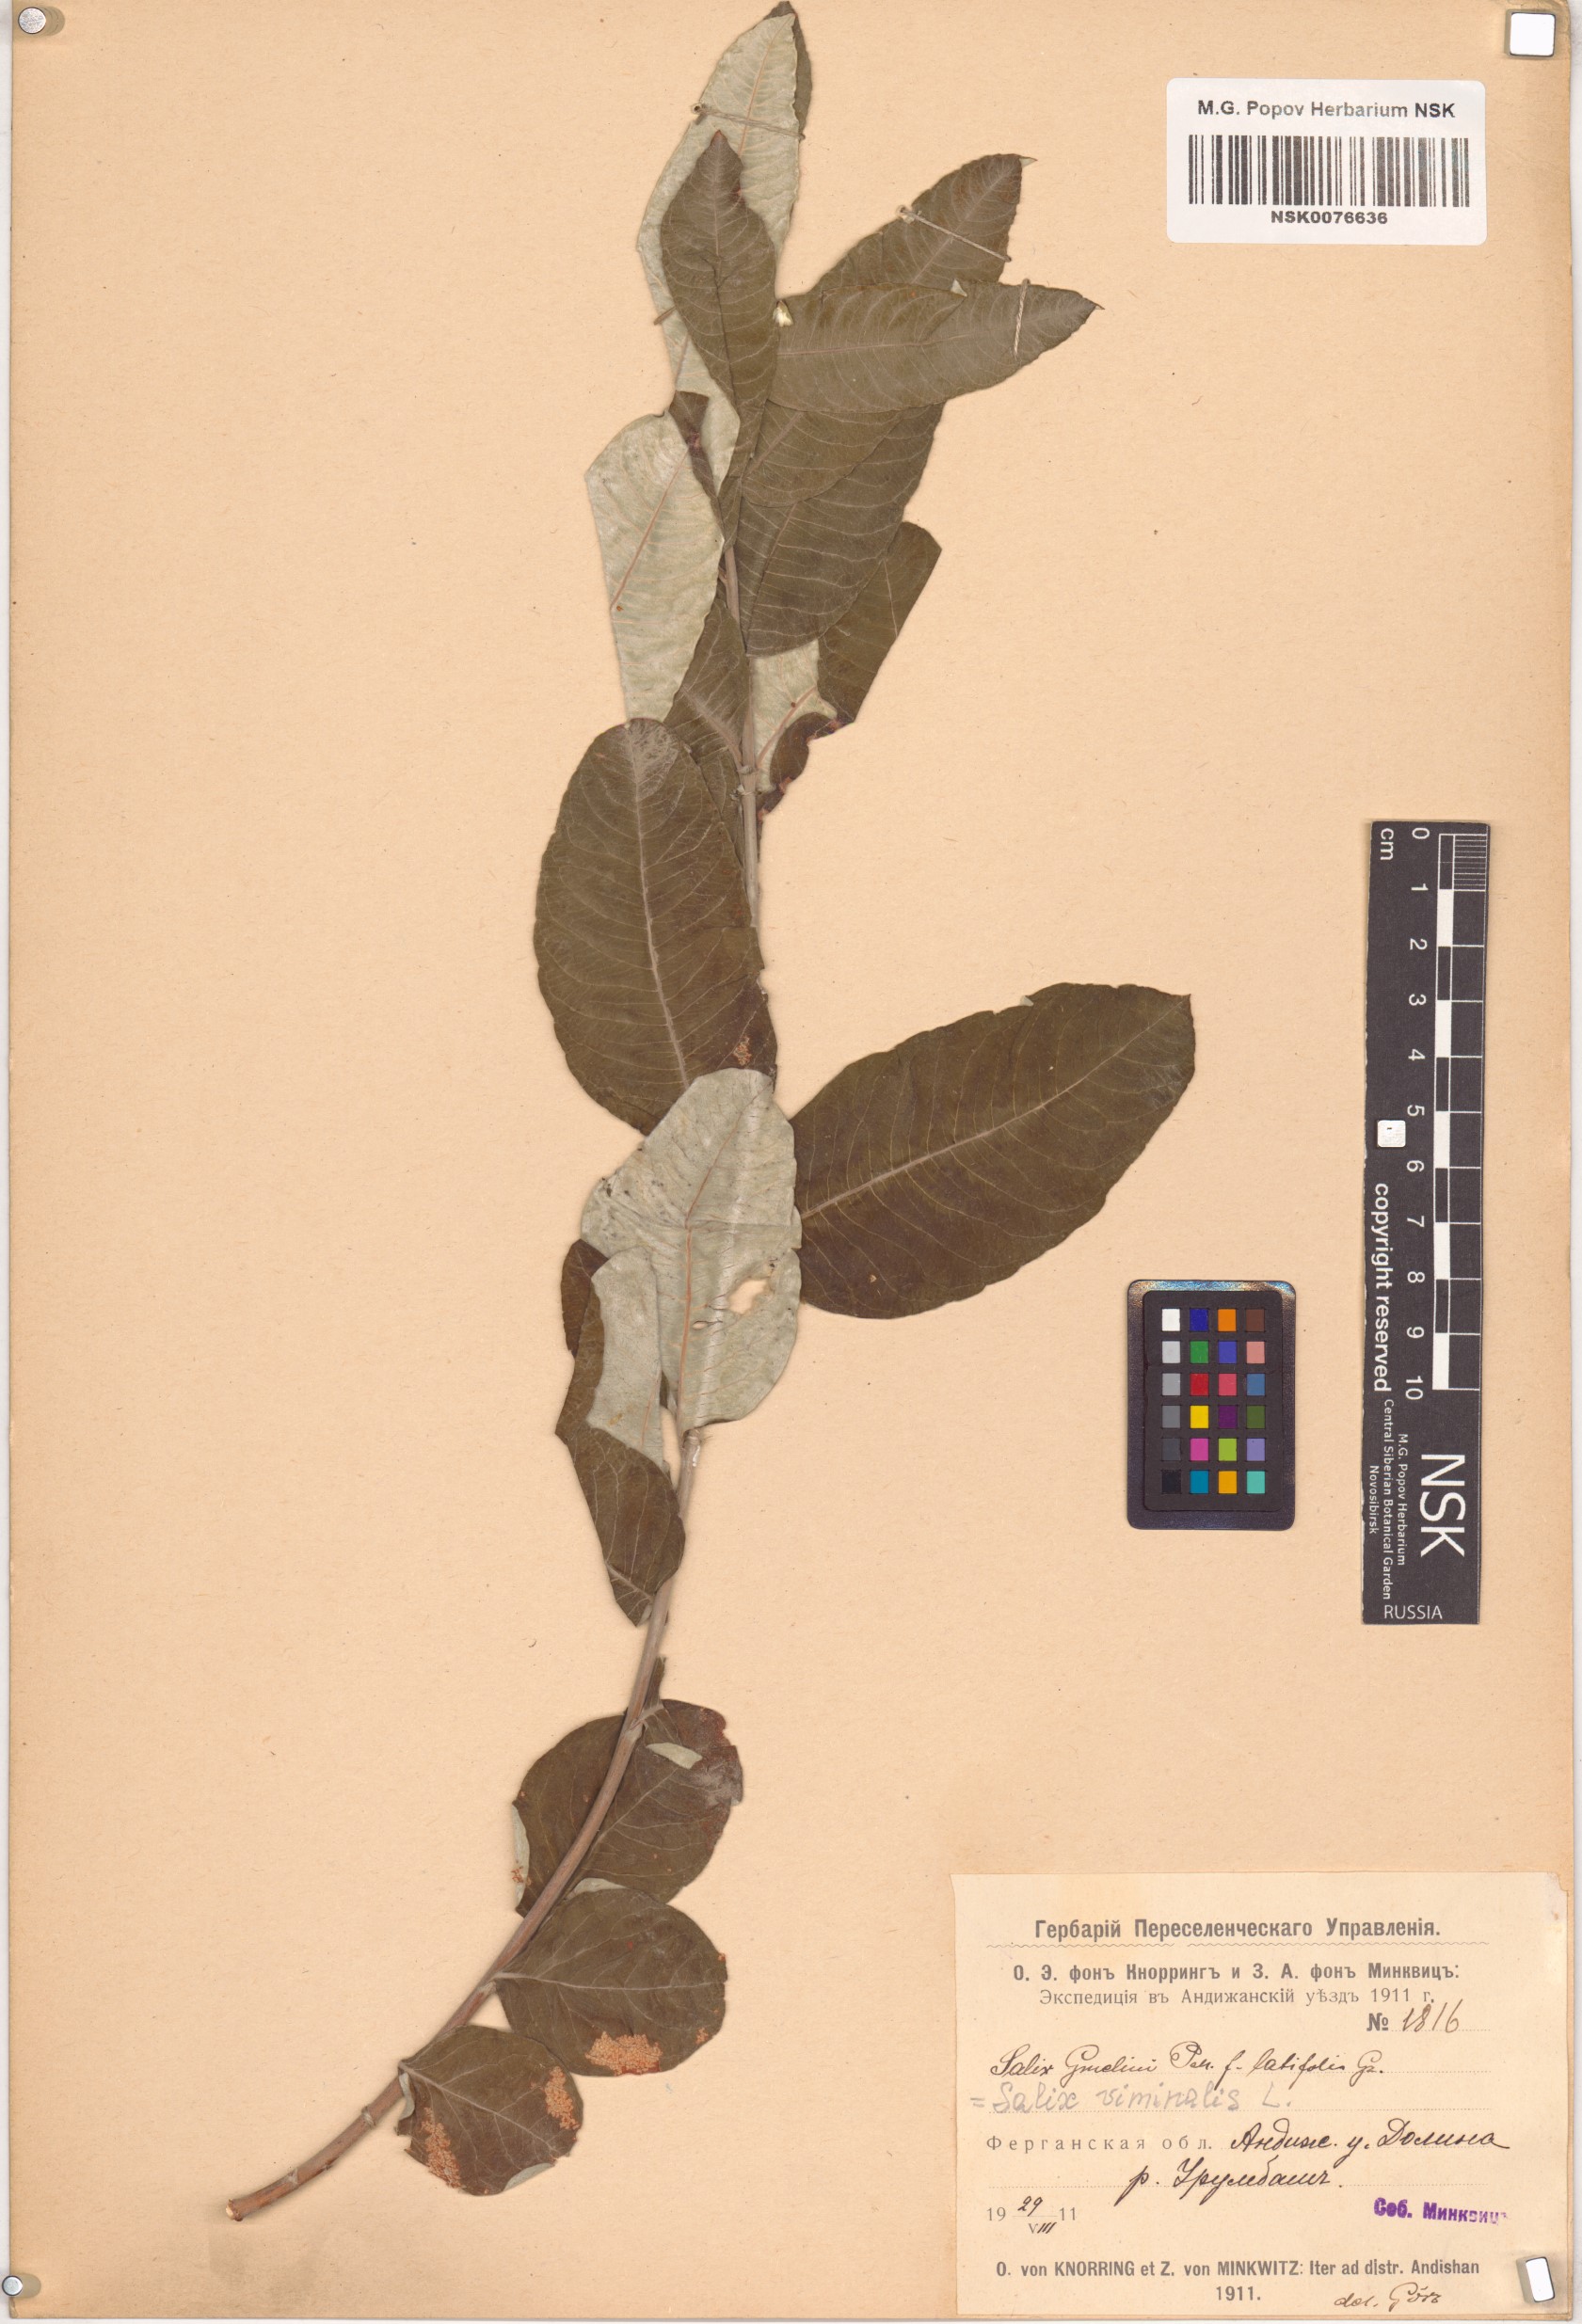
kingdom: Plantae
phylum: Tracheophyta
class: Magnoliopsida
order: Malpighiales
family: Salicaceae
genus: Salix
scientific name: Salix viminalis
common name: Osier
